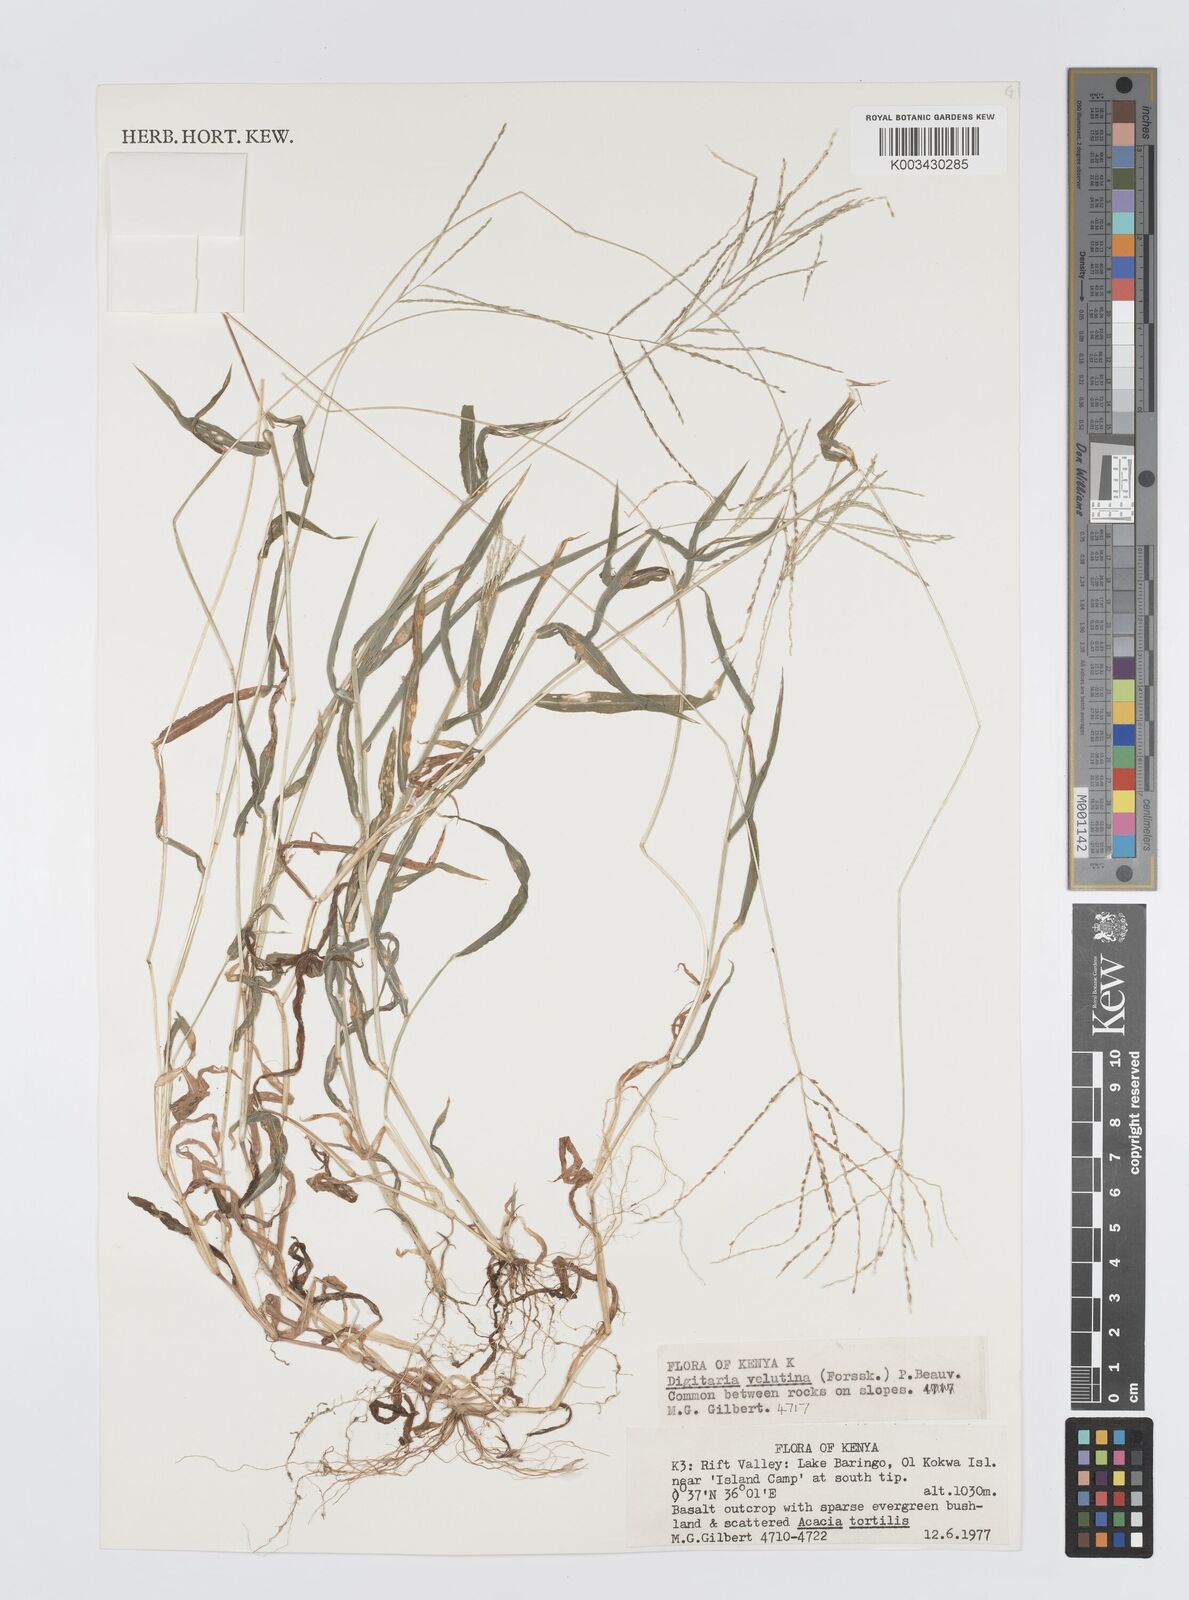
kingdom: Plantae
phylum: Tracheophyta
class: Liliopsida
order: Poales
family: Poaceae
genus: Digitaria
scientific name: Digitaria velutina
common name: Long-plume finger grass
